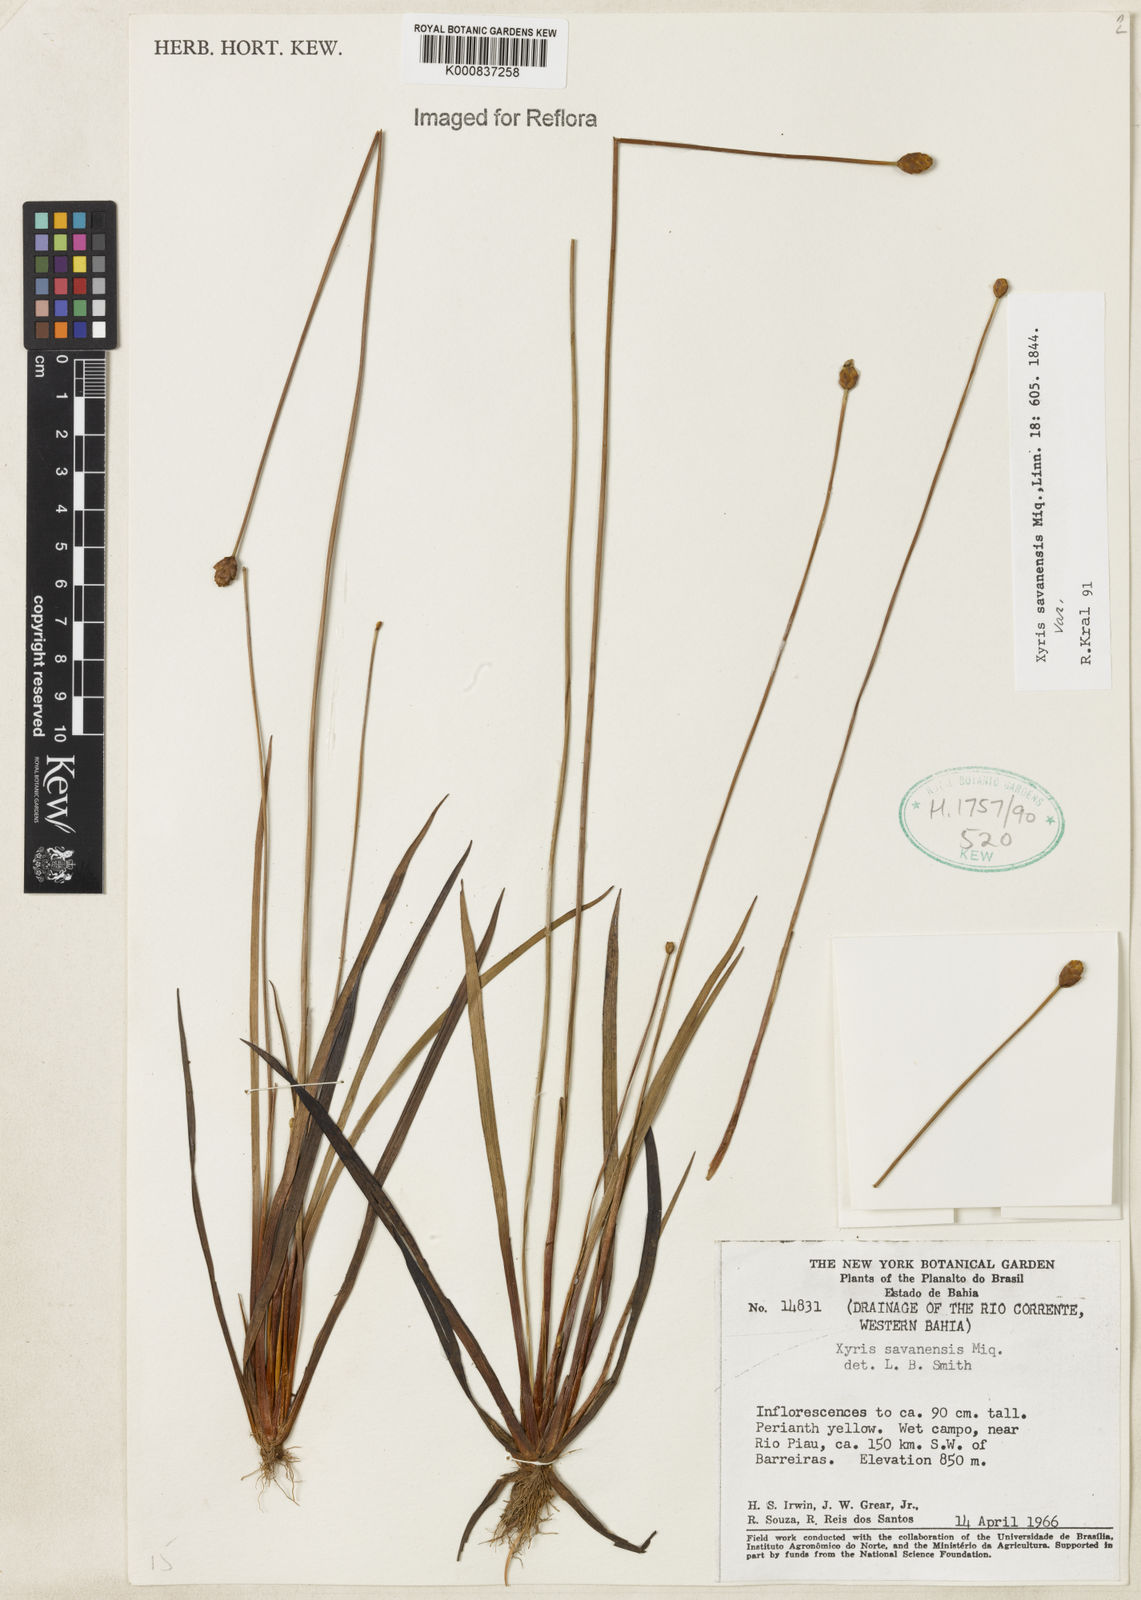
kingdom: Plantae
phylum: Tracheophyta
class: Liliopsida
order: Poales
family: Xyridaceae
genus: Xyris
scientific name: Xyris savanensis
